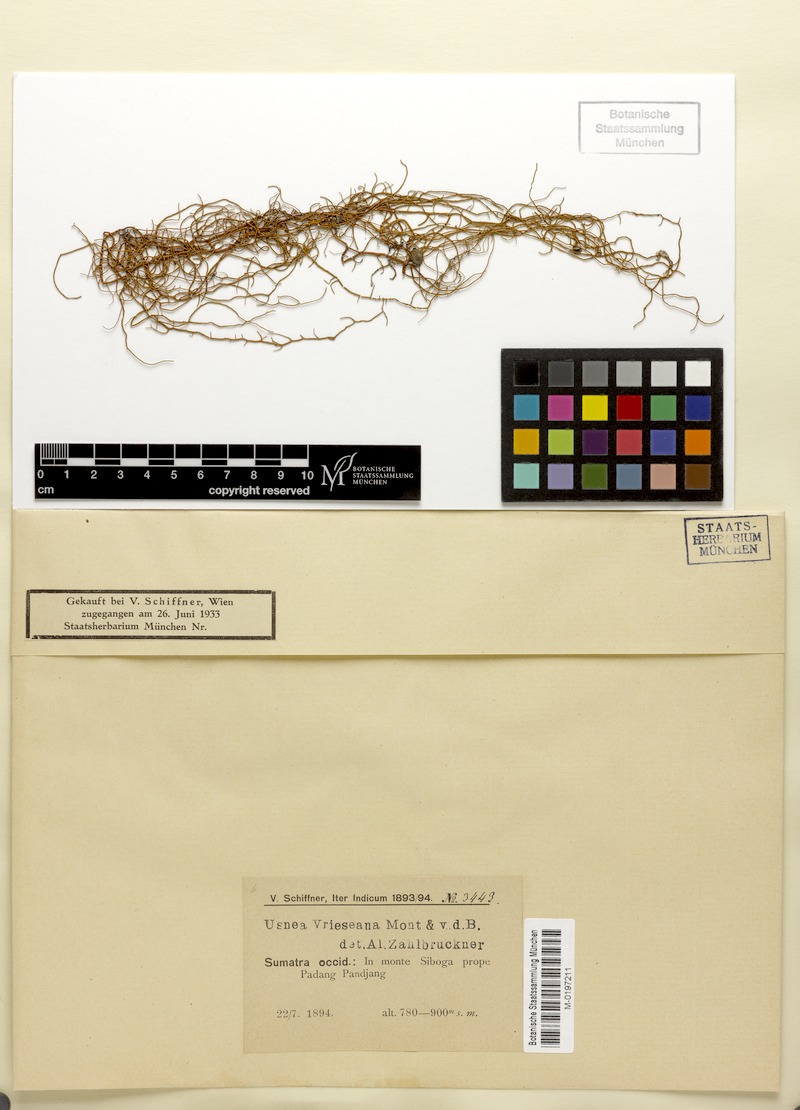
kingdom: Fungi
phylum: Ascomycota
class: Lecanoromycetes
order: Lecanorales
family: Parmeliaceae
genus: Usnea
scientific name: Usnea vrieseana
